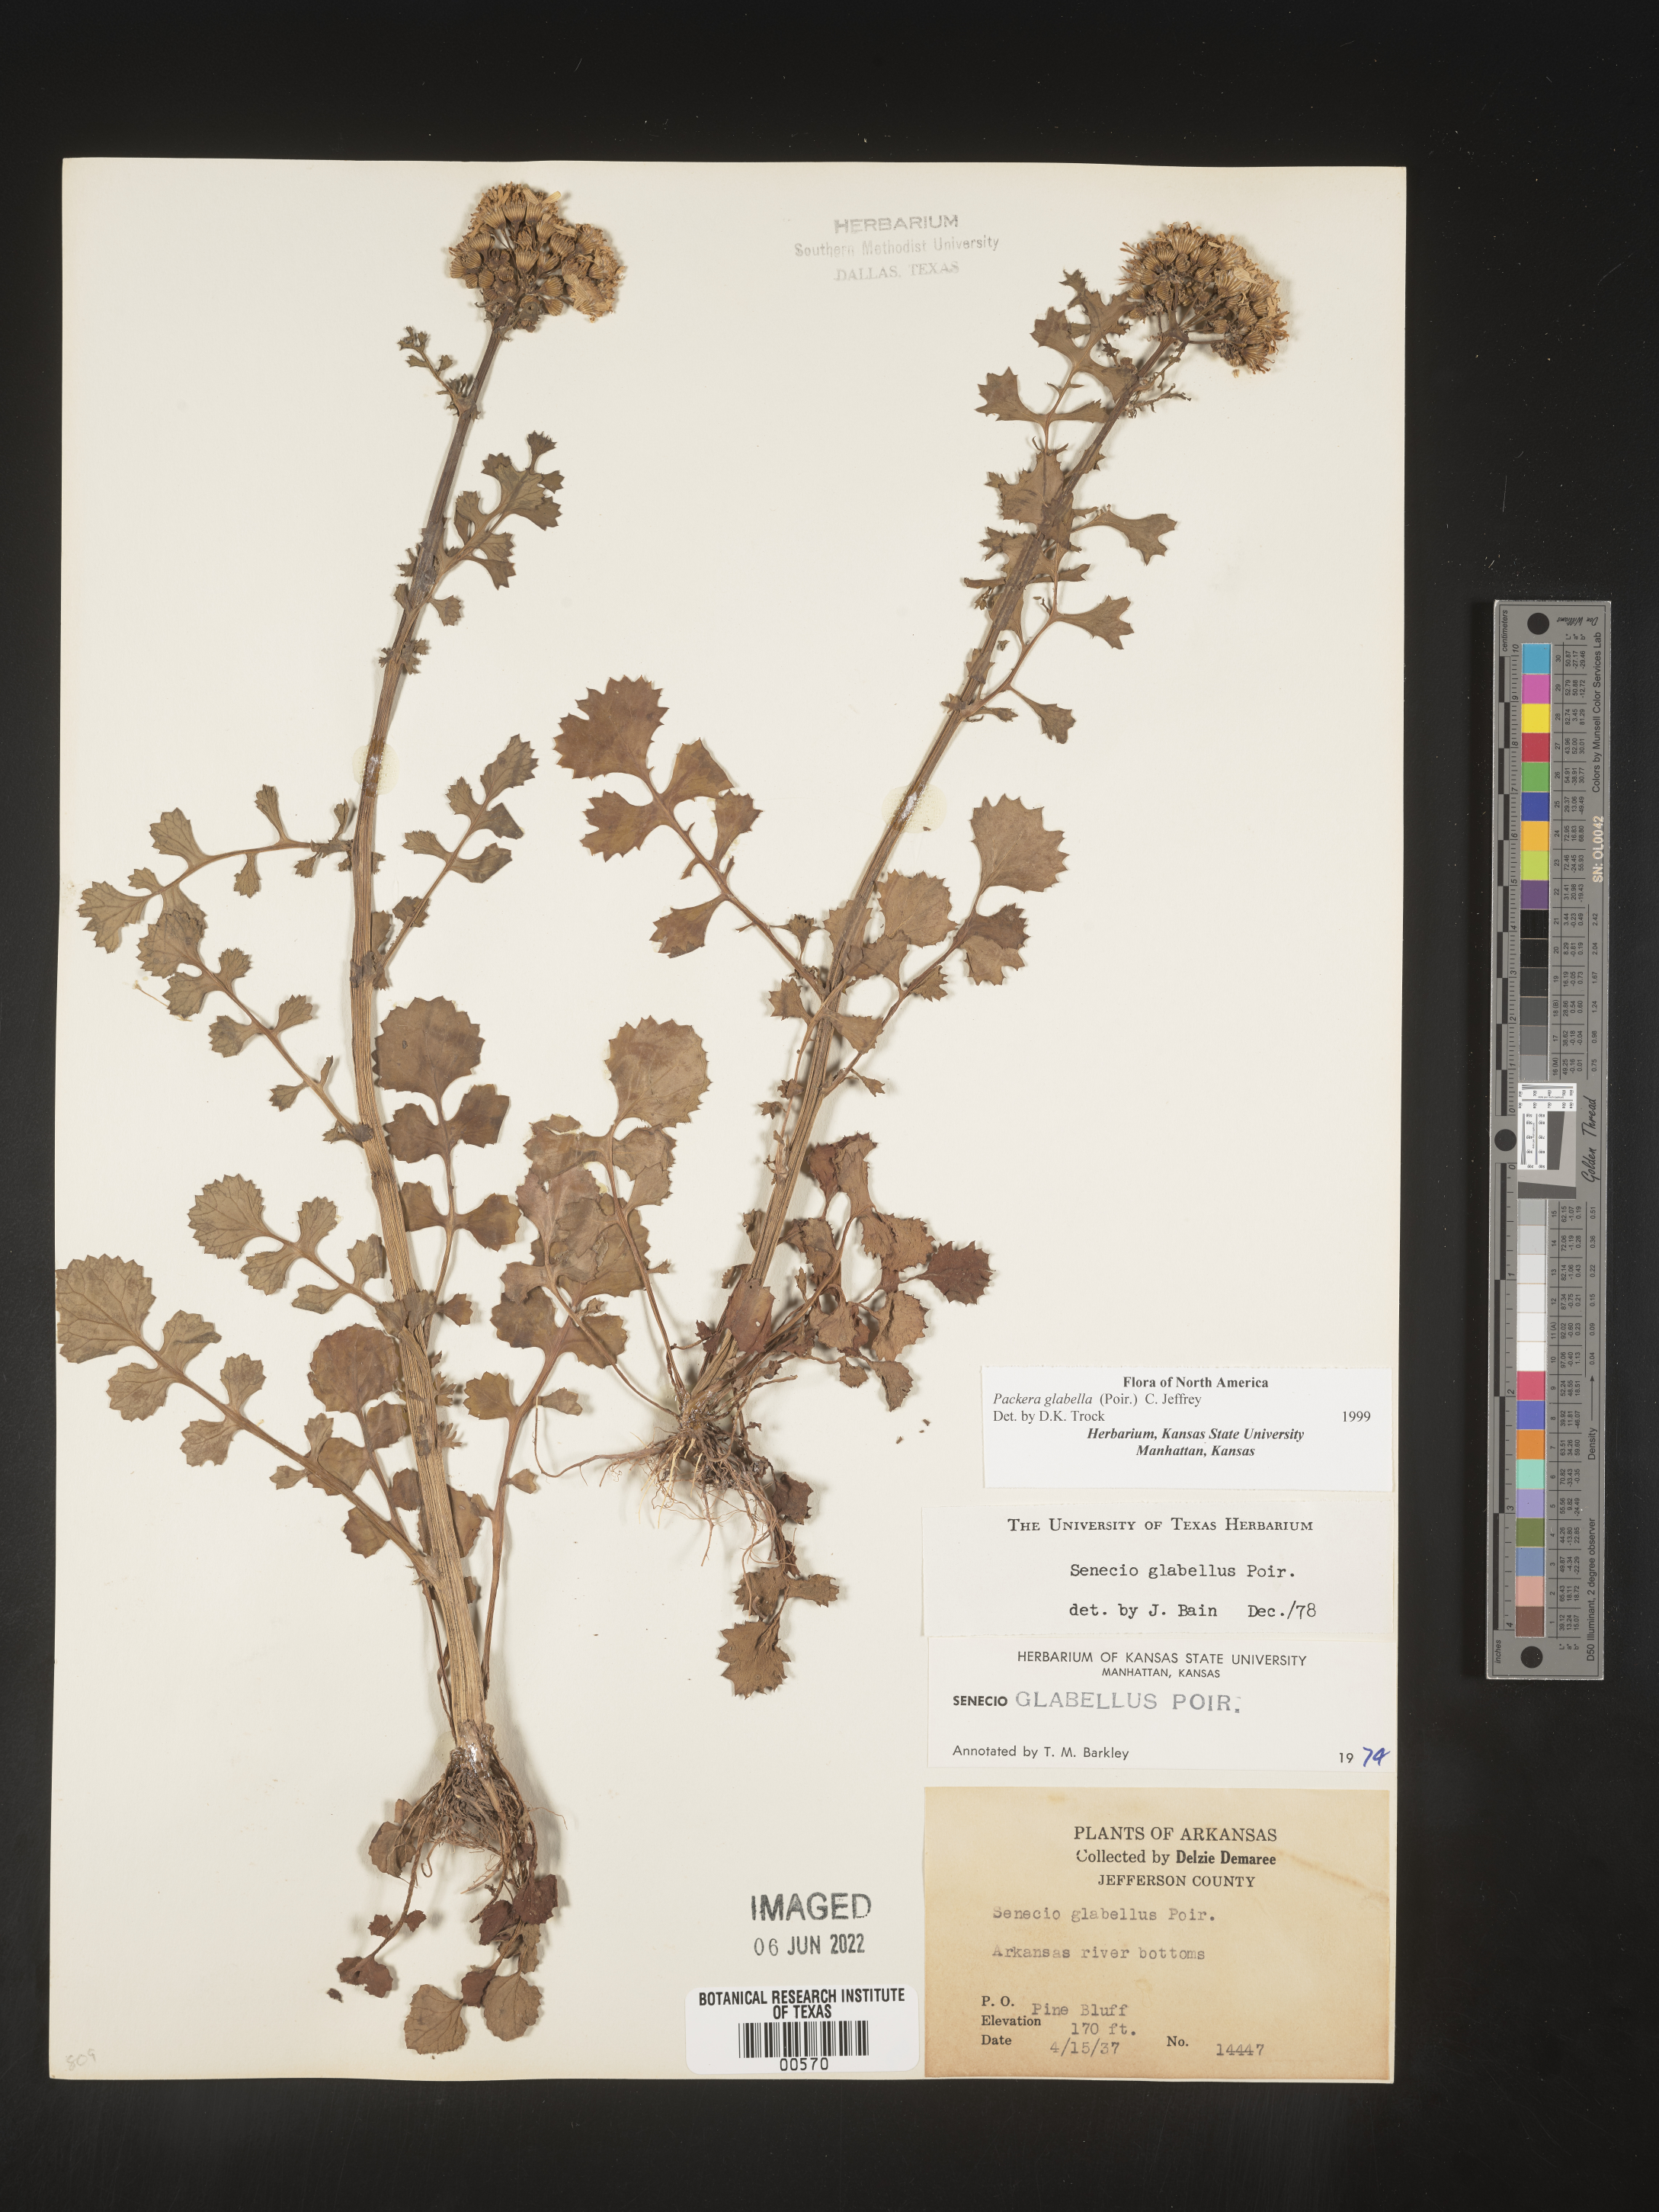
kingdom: Plantae
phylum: Tracheophyta
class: Magnoliopsida
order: Asterales
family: Asteraceae
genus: Packera
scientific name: Packera glabella
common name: Butterweed
